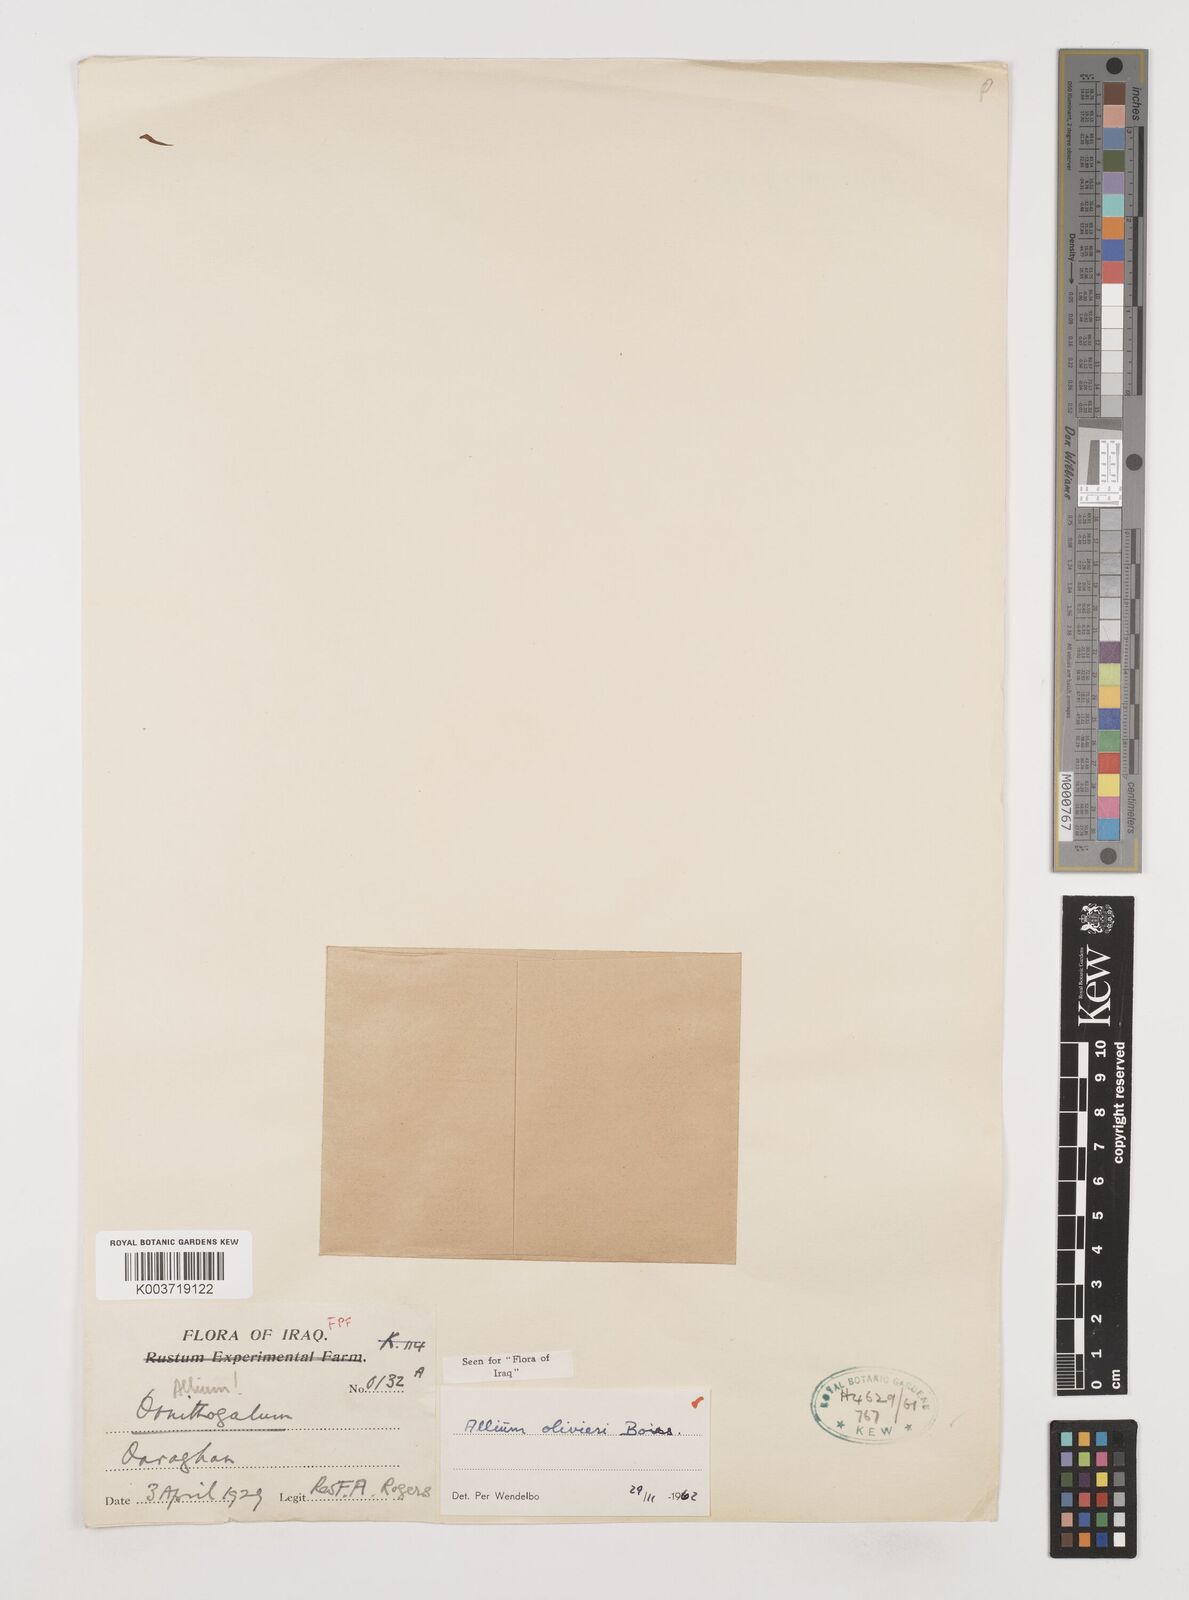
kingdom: Plantae
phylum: Tracheophyta
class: Liliopsida
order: Asparagales
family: Amaryllidaceae
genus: Allium
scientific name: Allium olivieri
